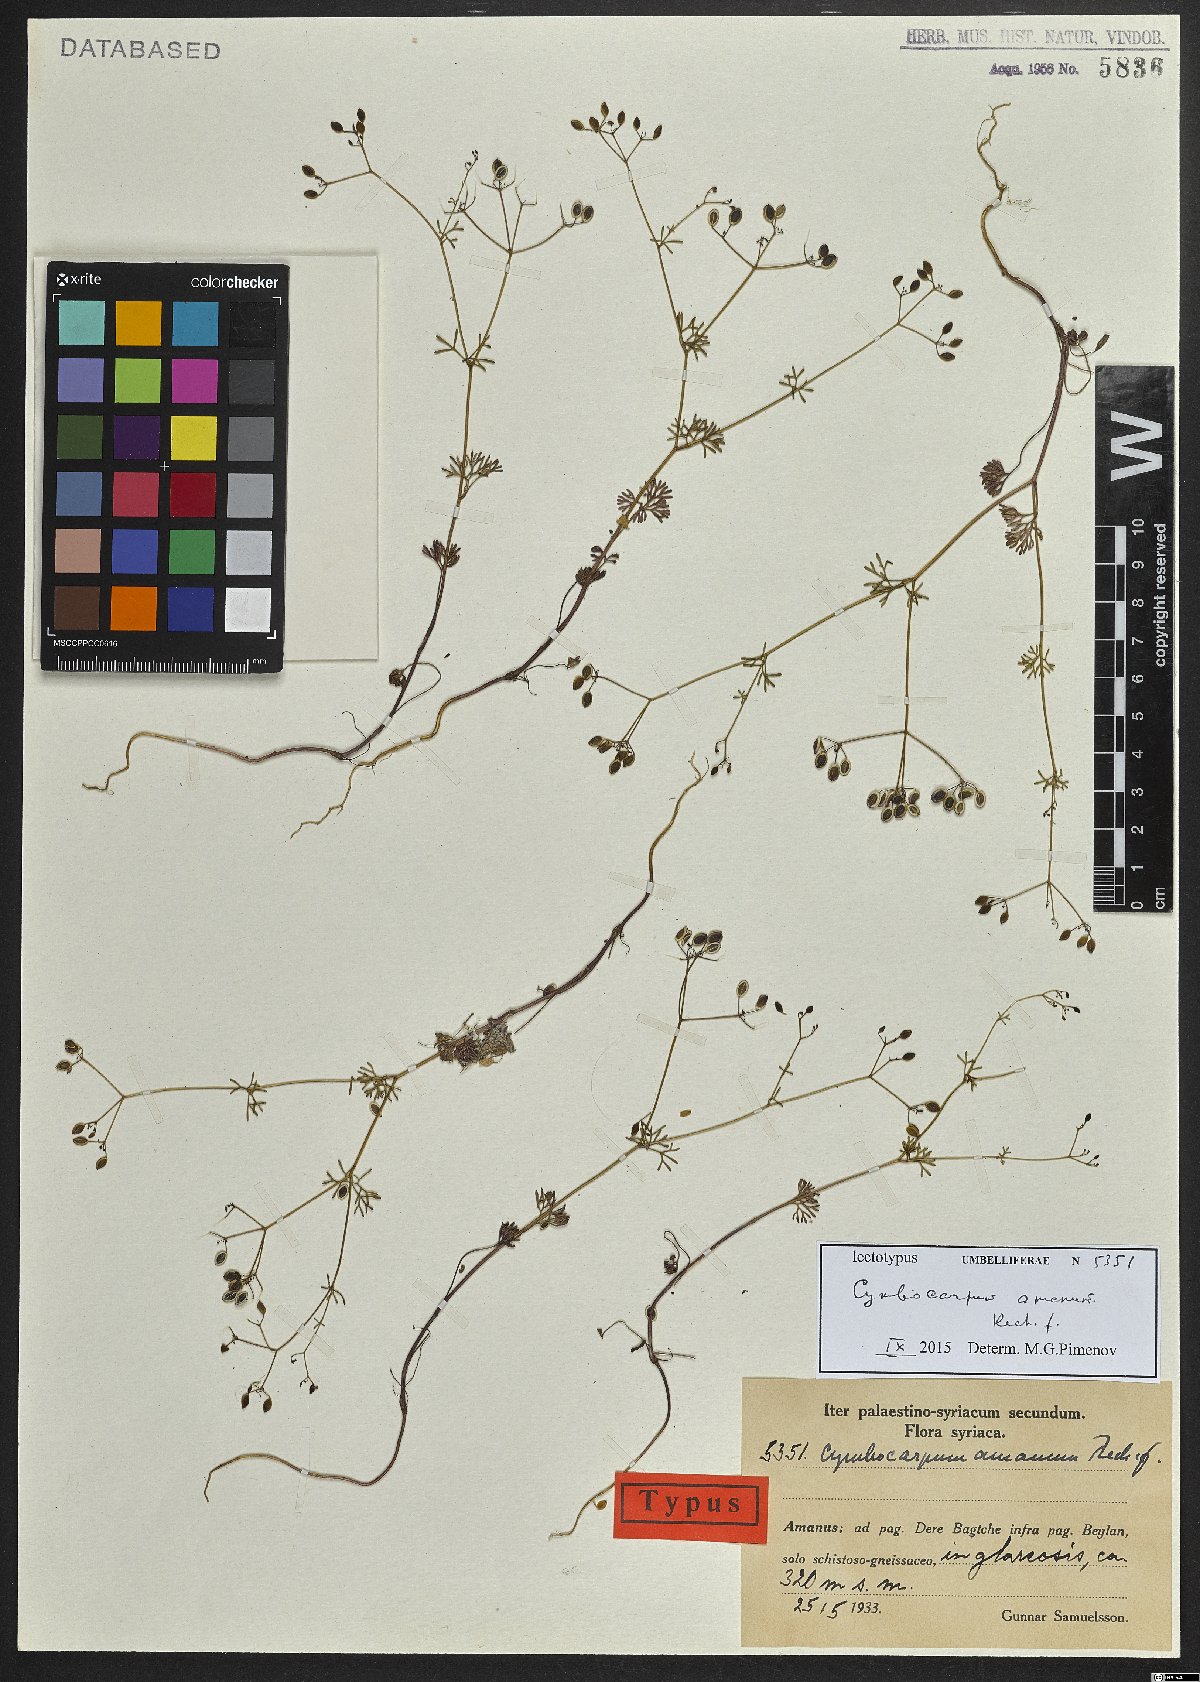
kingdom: Plantae
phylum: Tracheophyta
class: Magnoliopsida
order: Apiales
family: Apiaceae
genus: Cymbocarpum
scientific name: Cymbocarpum amanum
